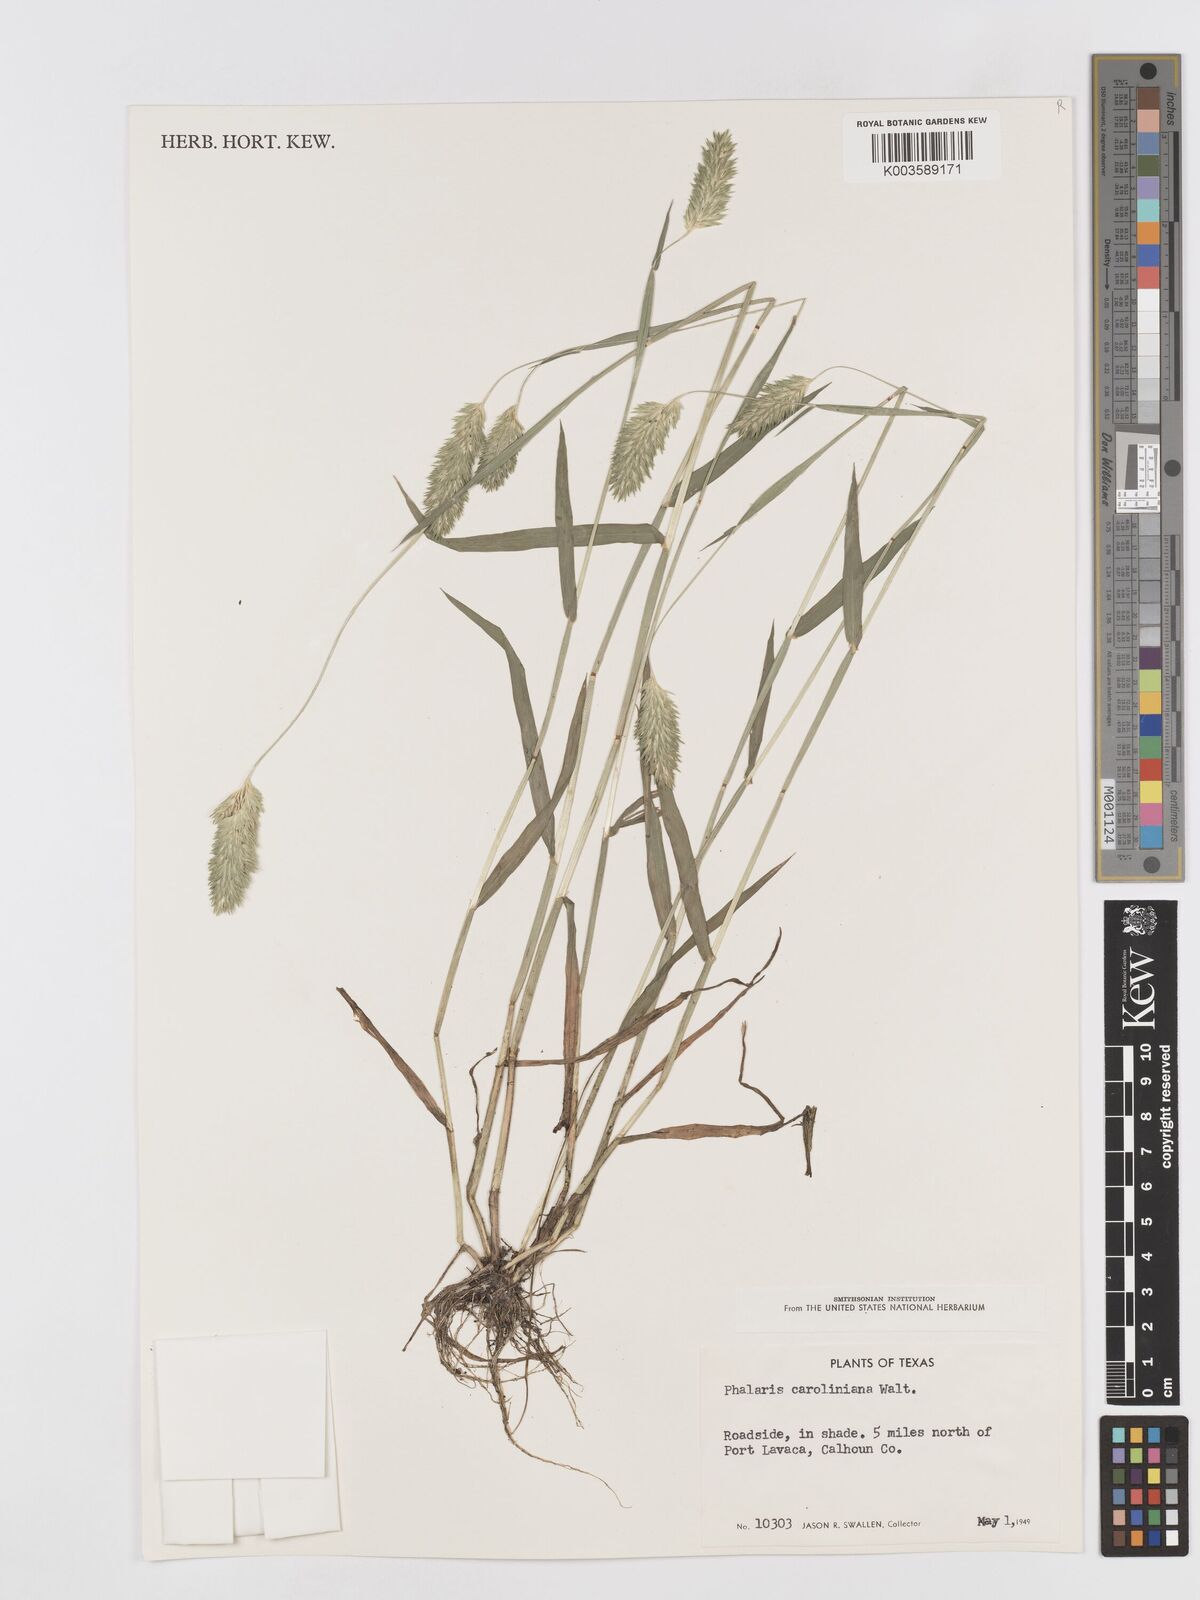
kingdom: Plantae
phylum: Tracheophyta
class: Liliopsida
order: Poales
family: Poaceae
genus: Phalaris
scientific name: Phalaris caroliniana
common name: May grass
